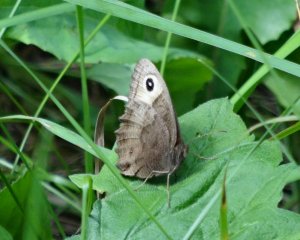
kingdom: Animalia
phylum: Arthropoda
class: Insecta
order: Lepidoptera
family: Nymphalidae
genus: Cercyonis
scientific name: Cercyonis pegala
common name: Common Wood-Nymph
